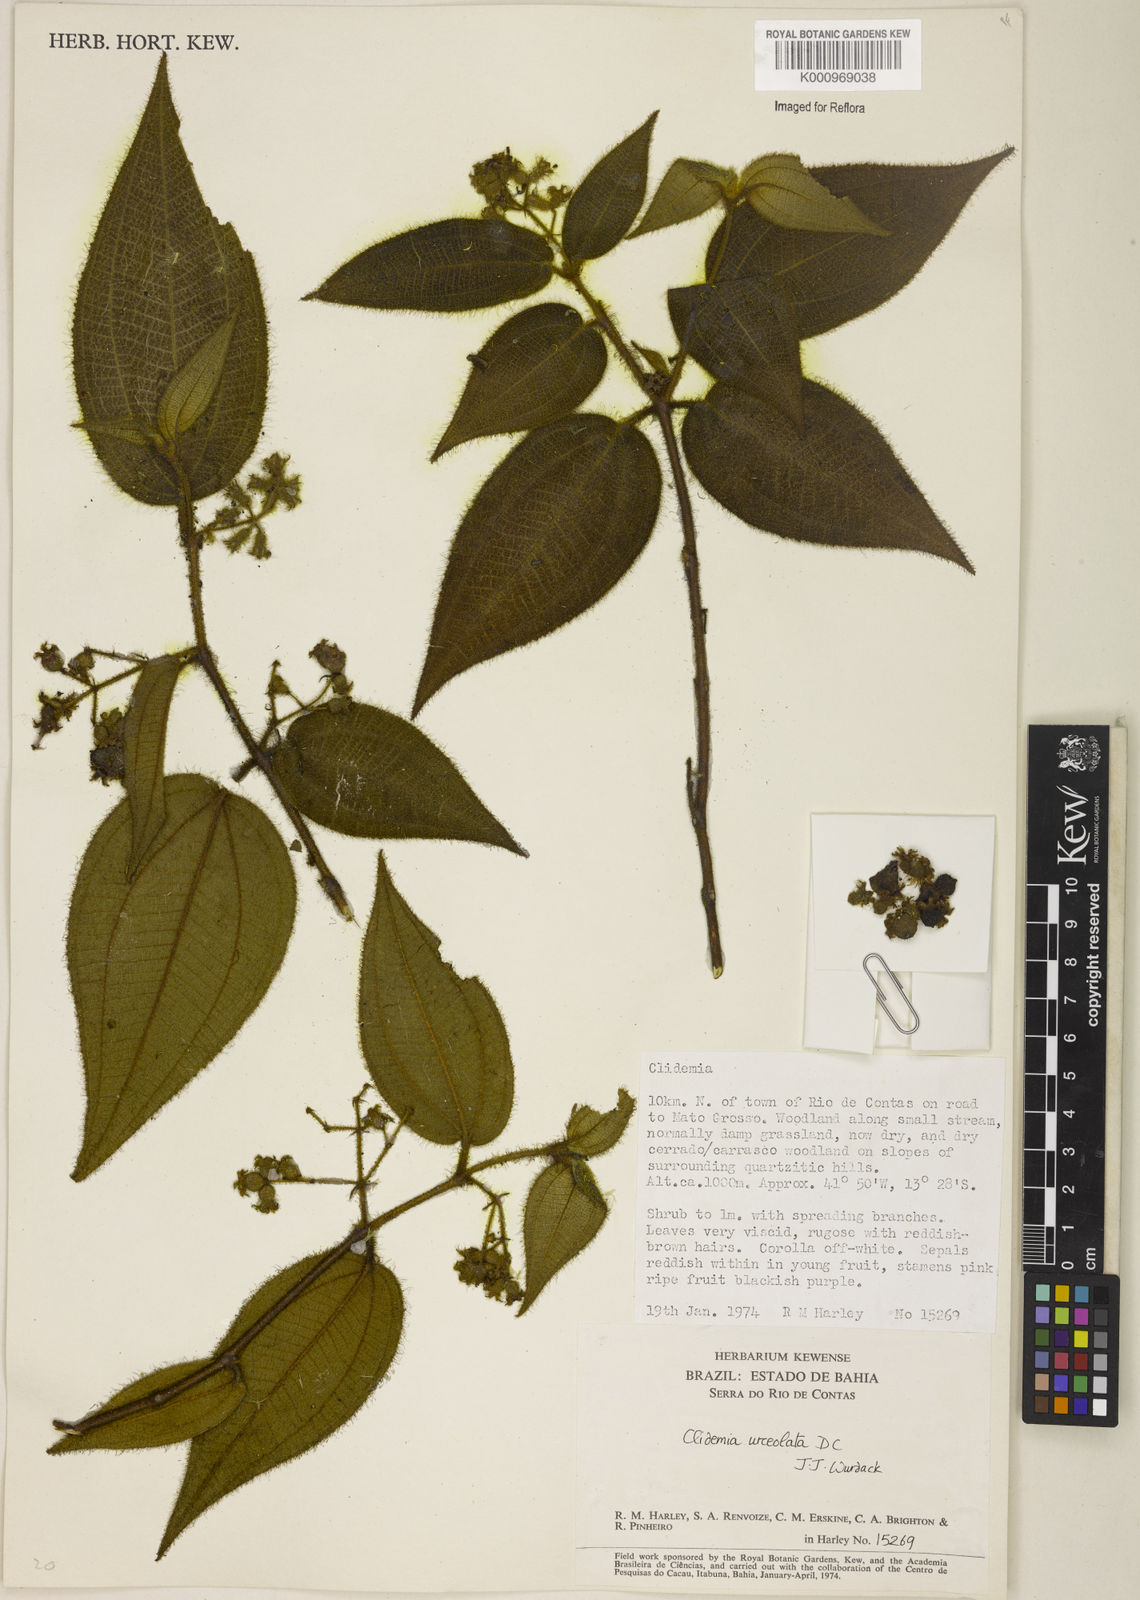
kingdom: Plantae
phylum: Tracheophyta
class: Magnoliopsida
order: Myrtales
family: Melastomataceae
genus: Miconia
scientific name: Miconia neourceolata
